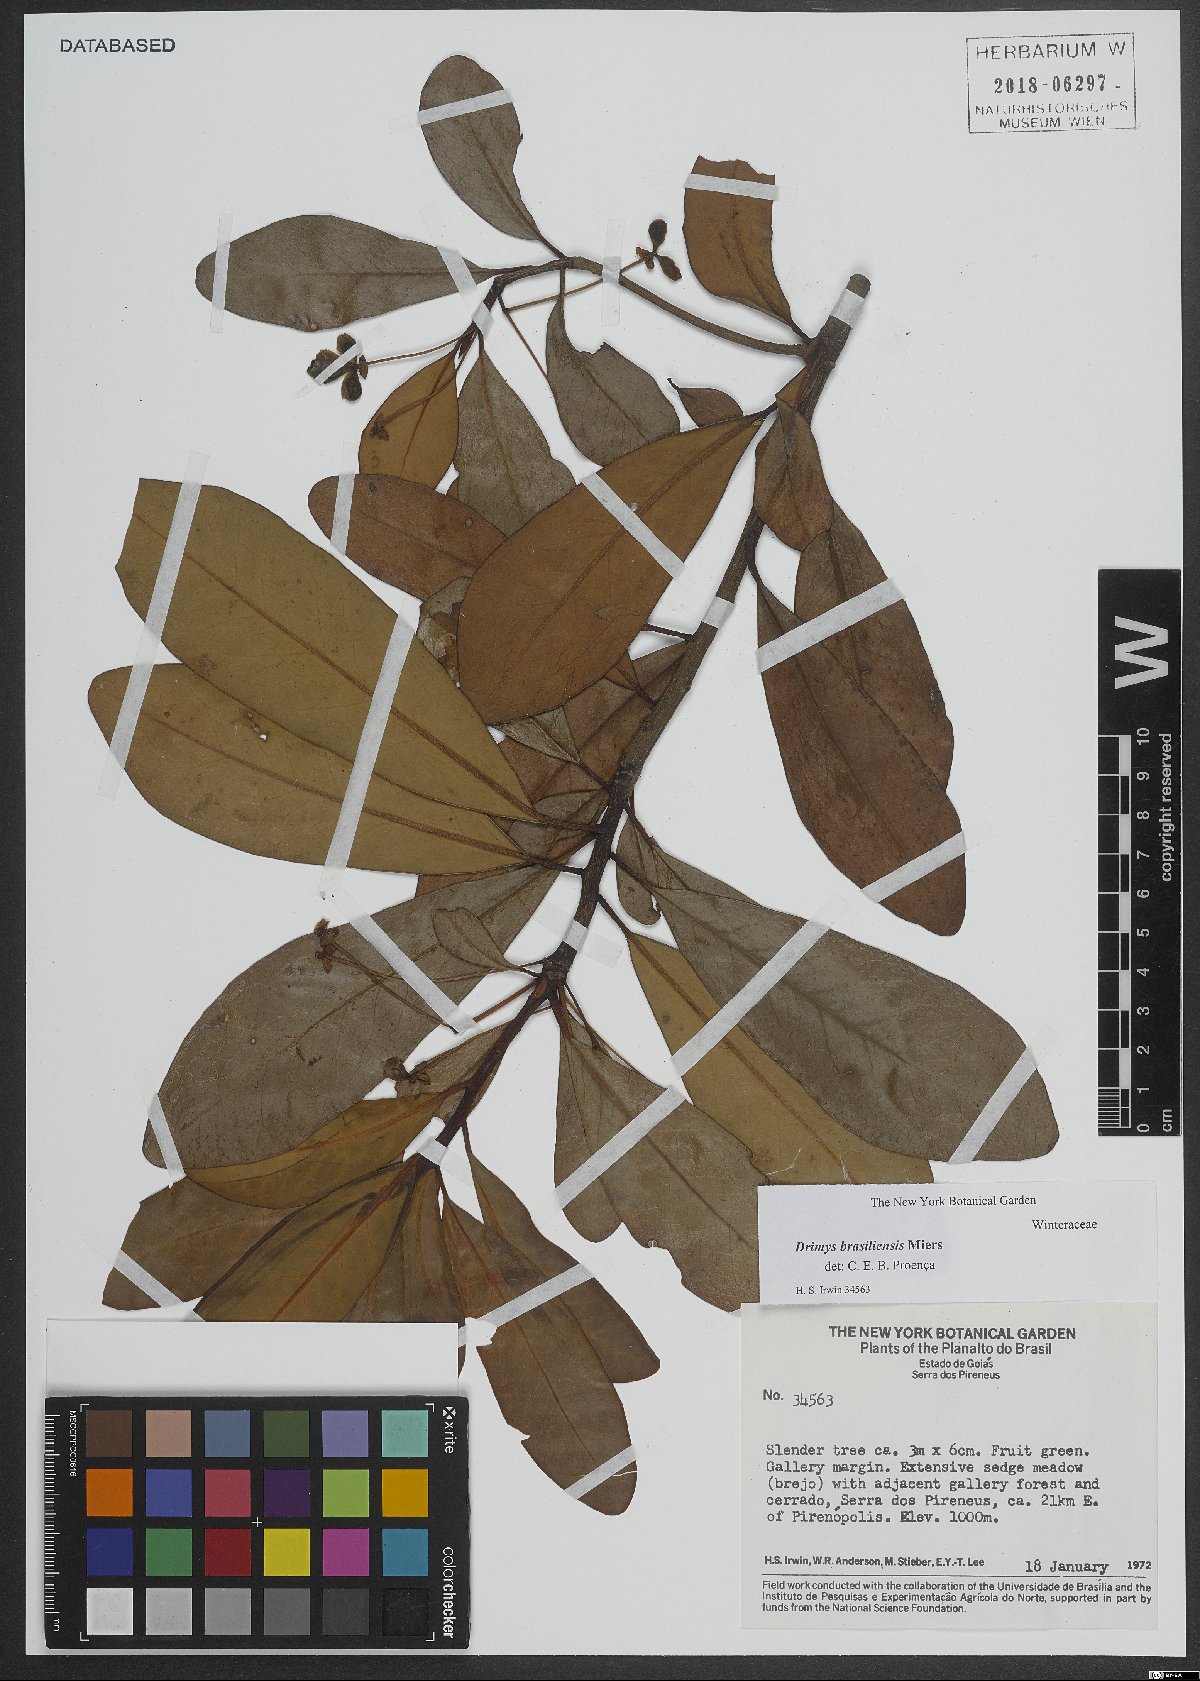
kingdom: Plantae
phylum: Tracheophyta
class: Magnoliopsida
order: Canellales
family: Winteraceae
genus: Drimys
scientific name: Drimys brasiliensis
